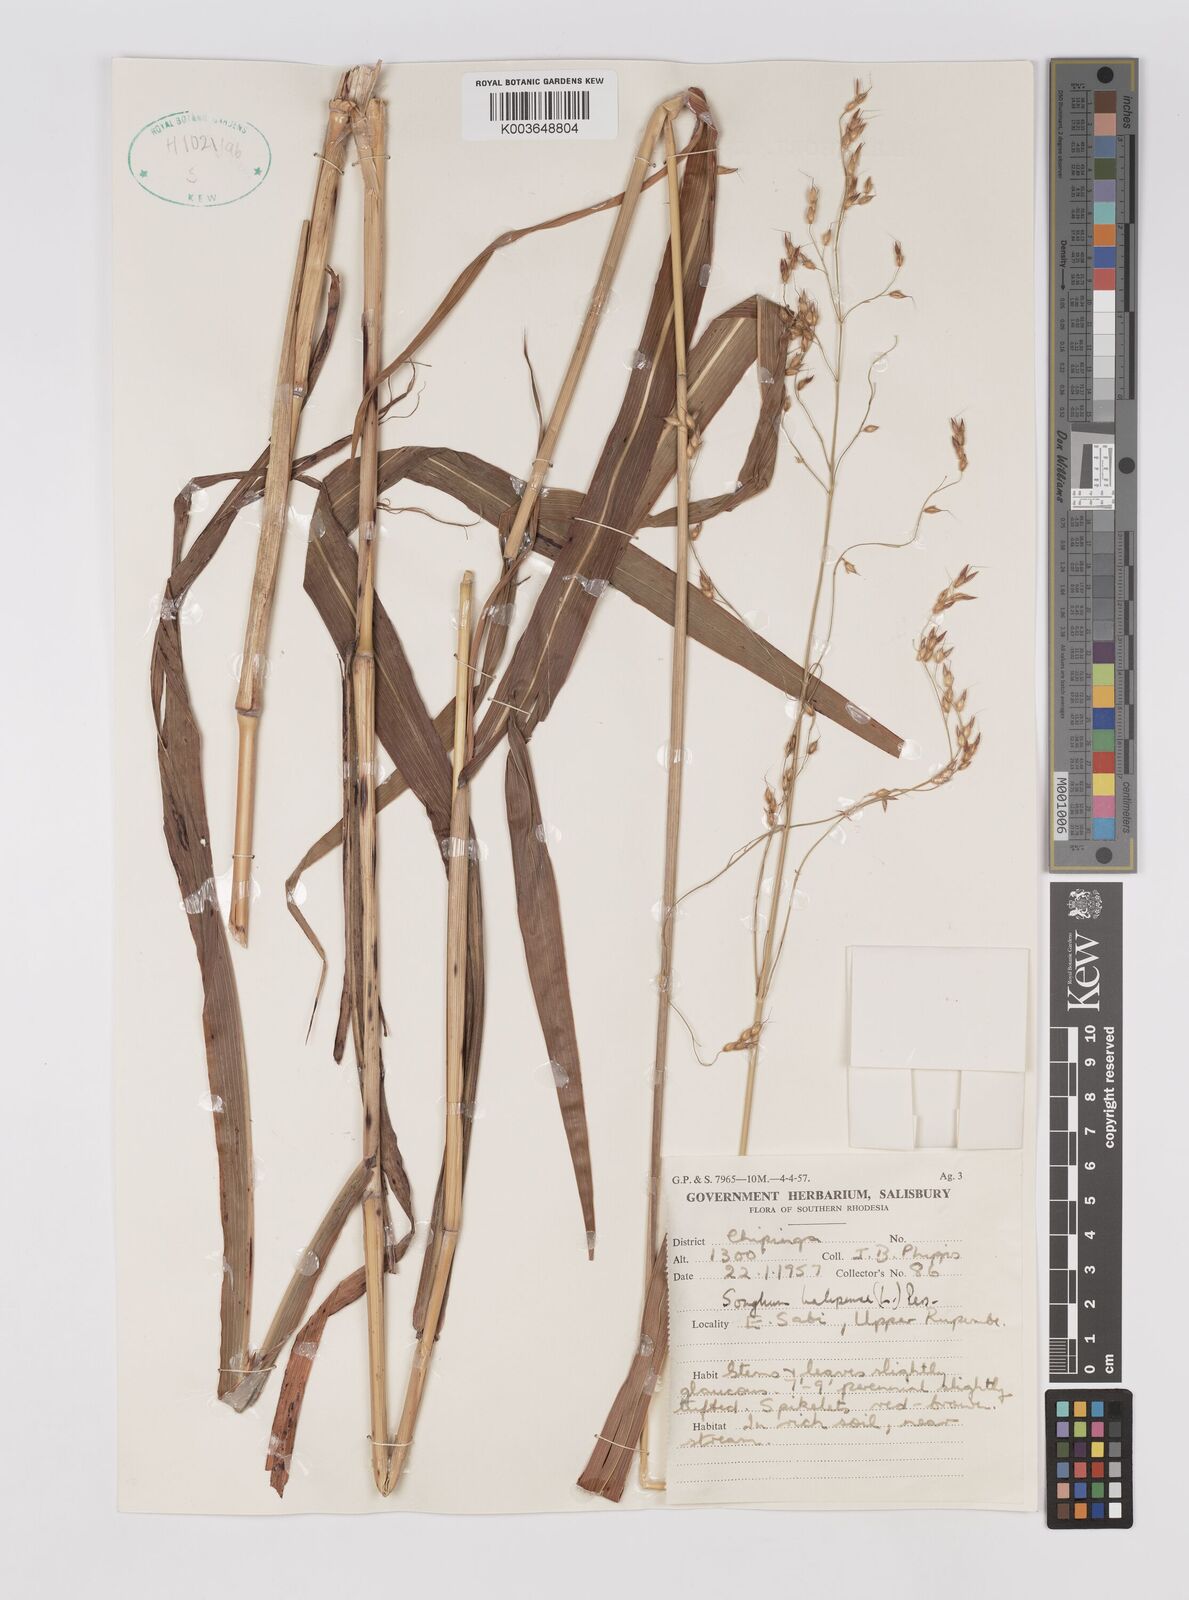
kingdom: Plantae
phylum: Tracheophyta
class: Liliopsida
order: Poales
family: Poaceae
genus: Sorghum
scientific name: Sorghum halepense
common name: Johnson-grass
